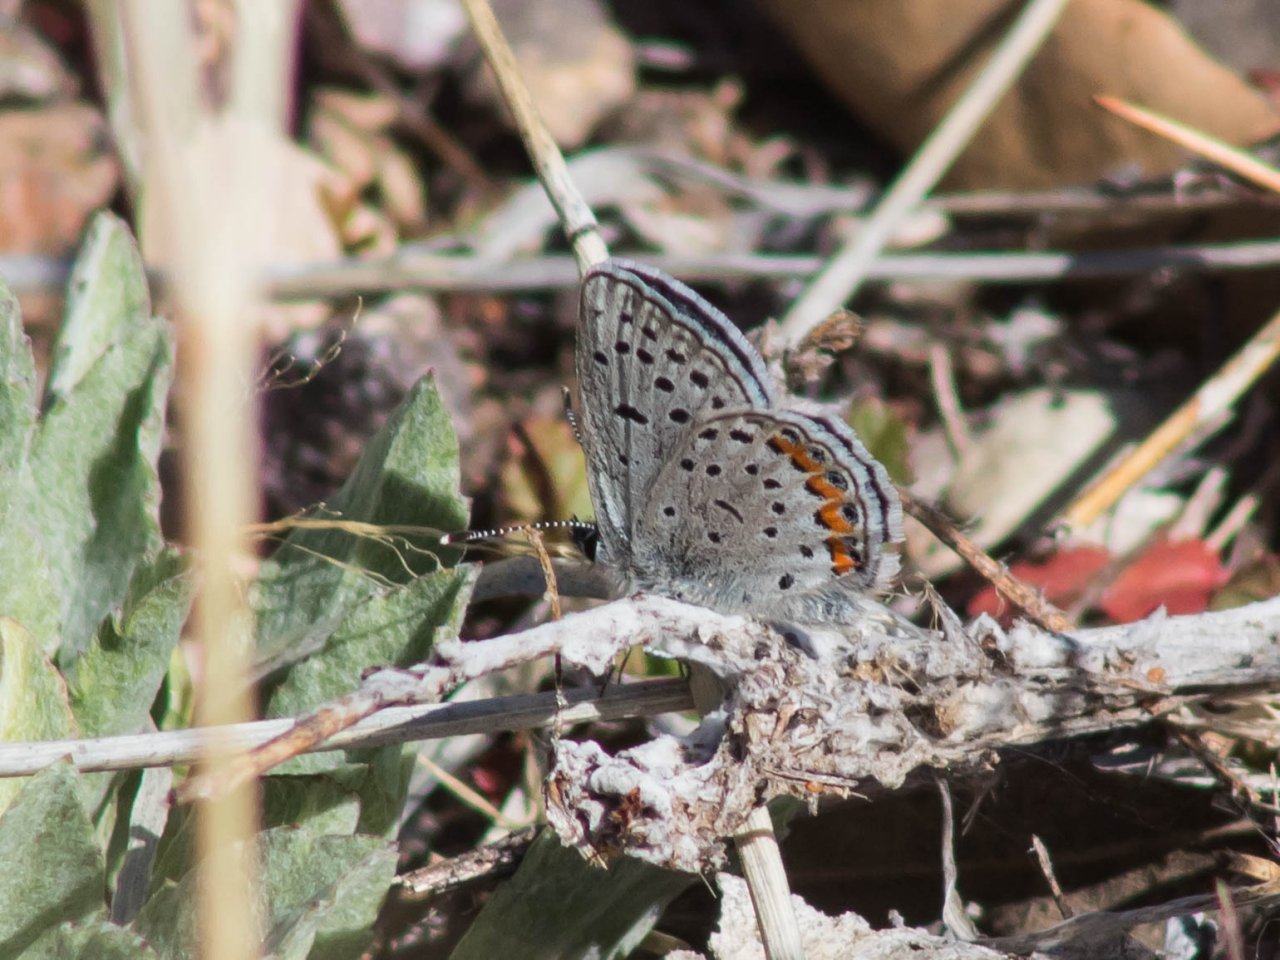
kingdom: Animalia
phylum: Arthropoda
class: Insecta
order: Lepidoptera
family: Lycaenidae
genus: Plebejus
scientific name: Plebejus
